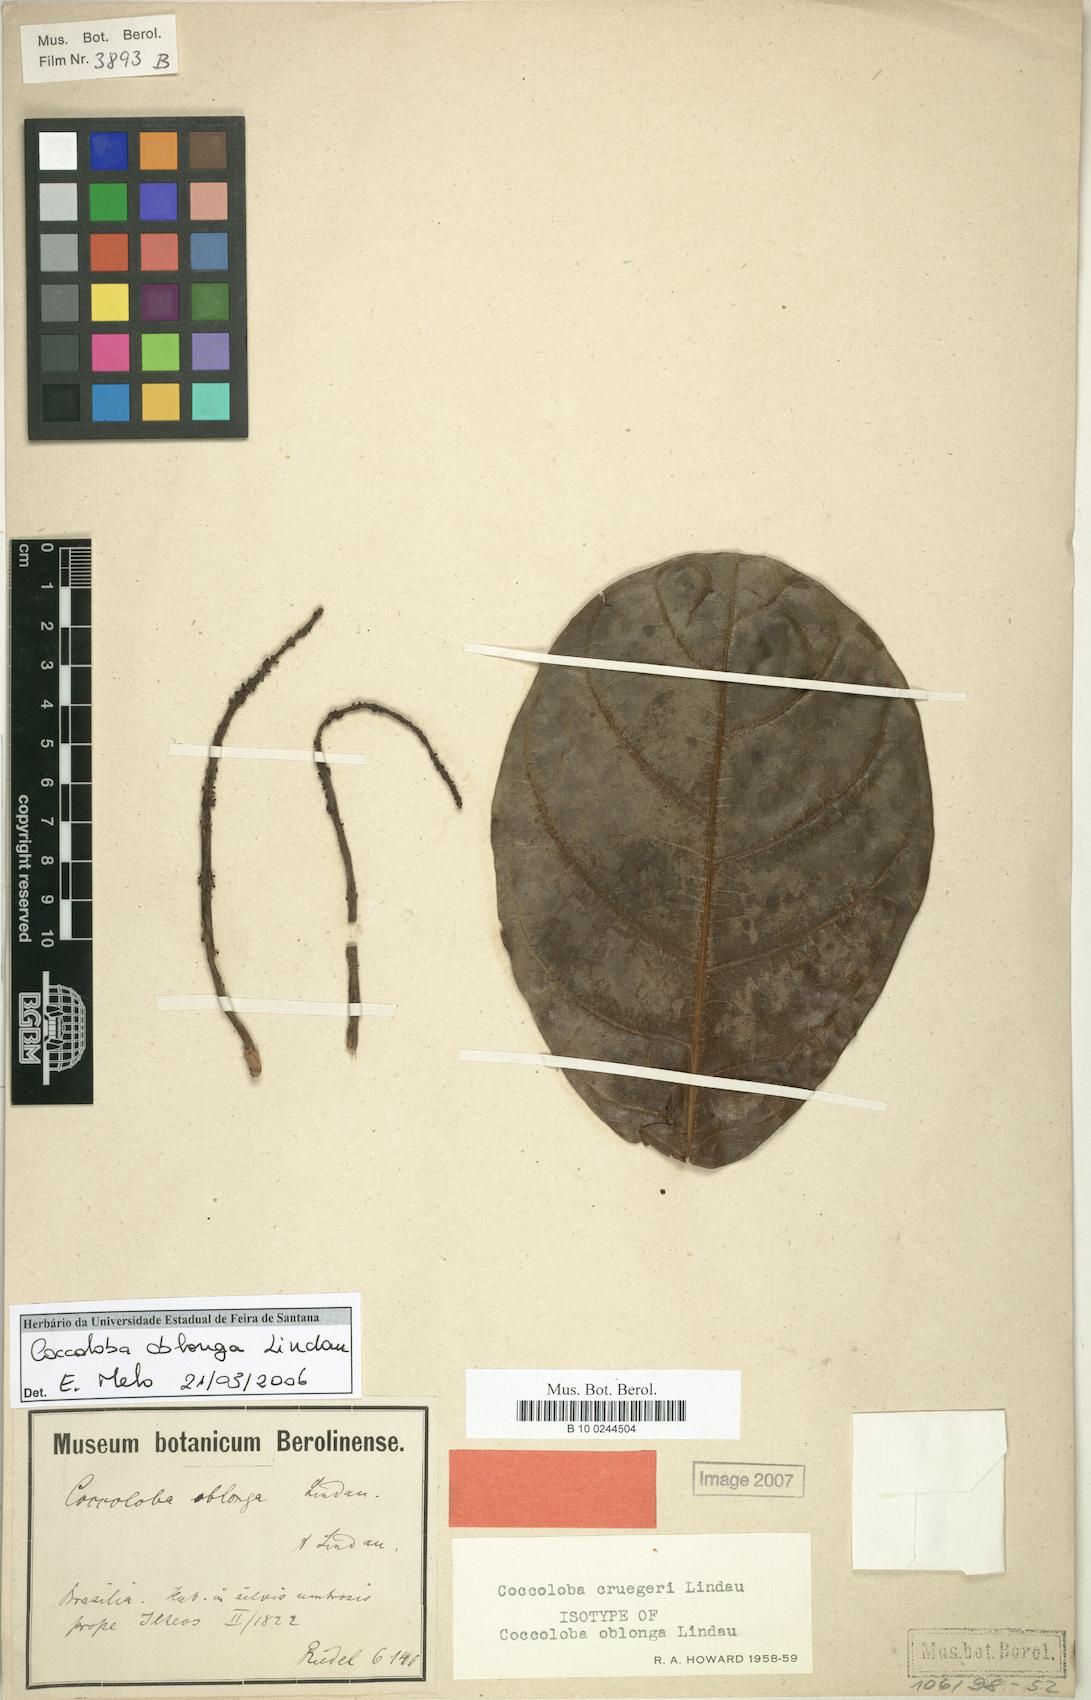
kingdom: Plantae
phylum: Tracheophyta
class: Magnoliopsida
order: Caryophyllales
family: Polygonaceae
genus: Coccoloba
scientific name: Coccoloba cruegeri
